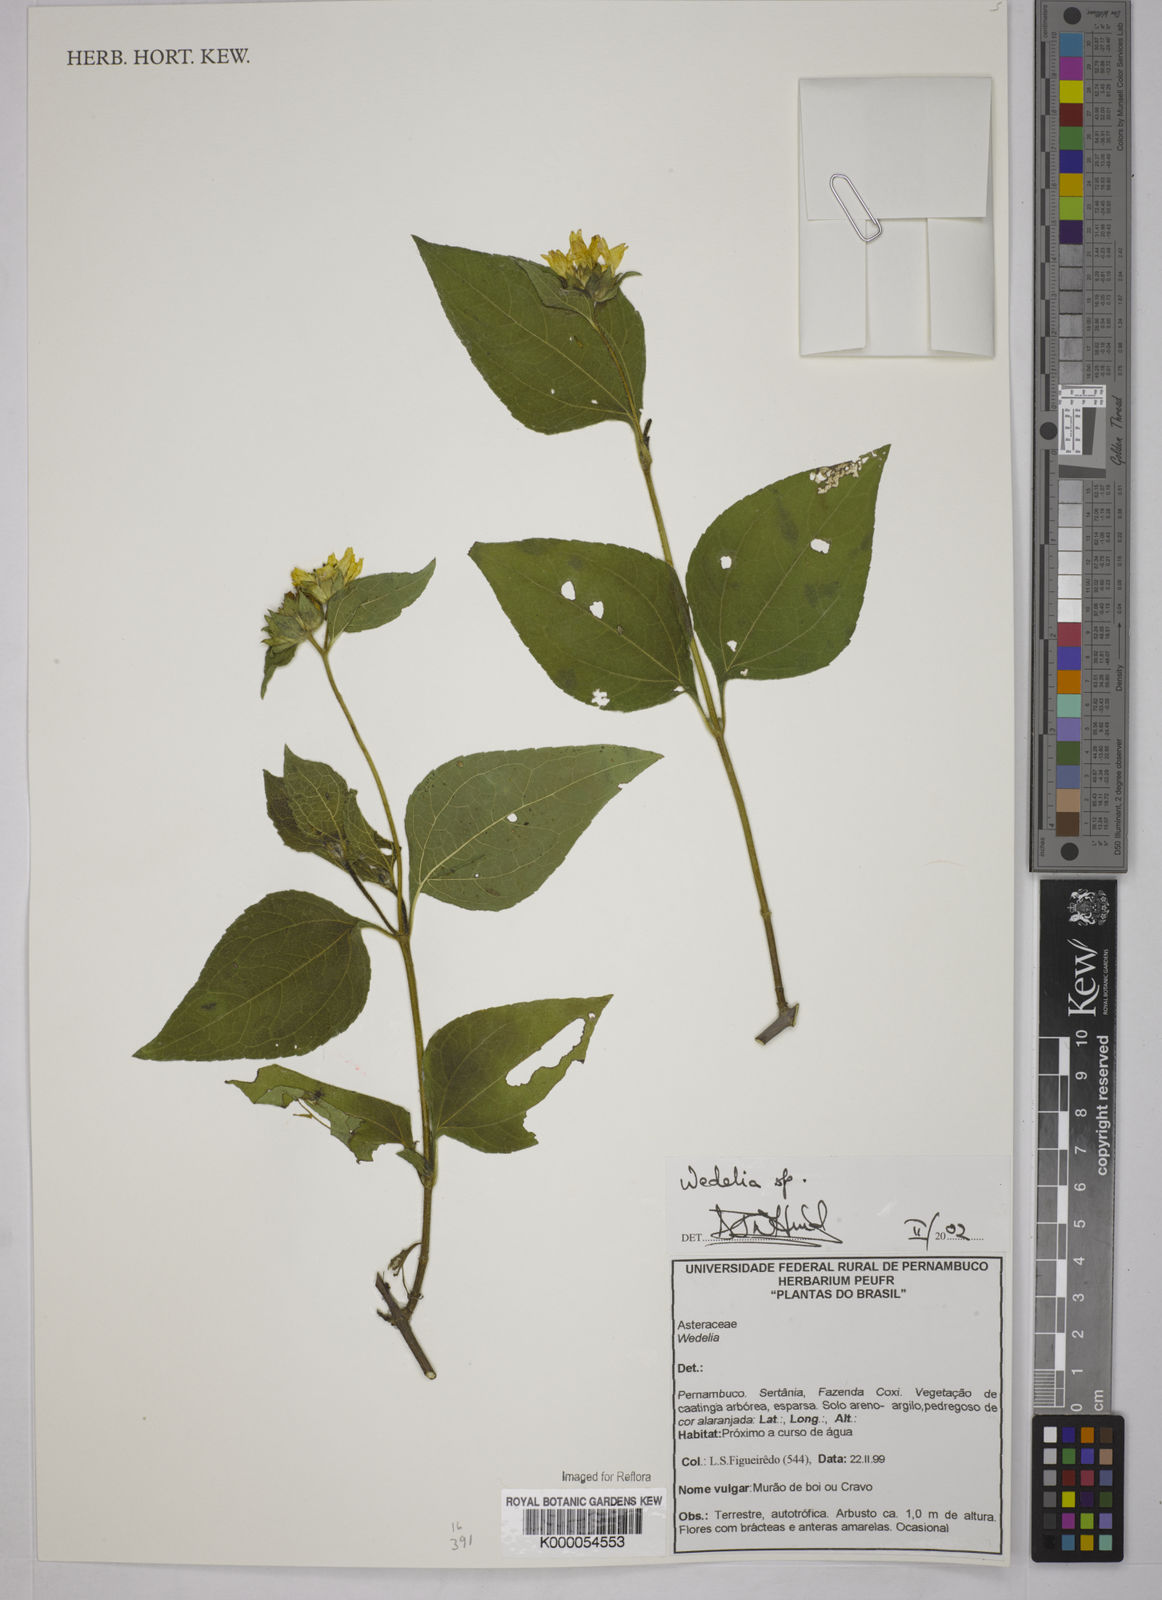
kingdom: Plantae
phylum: Tracheophyta
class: Magnoliopsida
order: Asterales
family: Asteraceae
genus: Wedelia
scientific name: Wedelia
